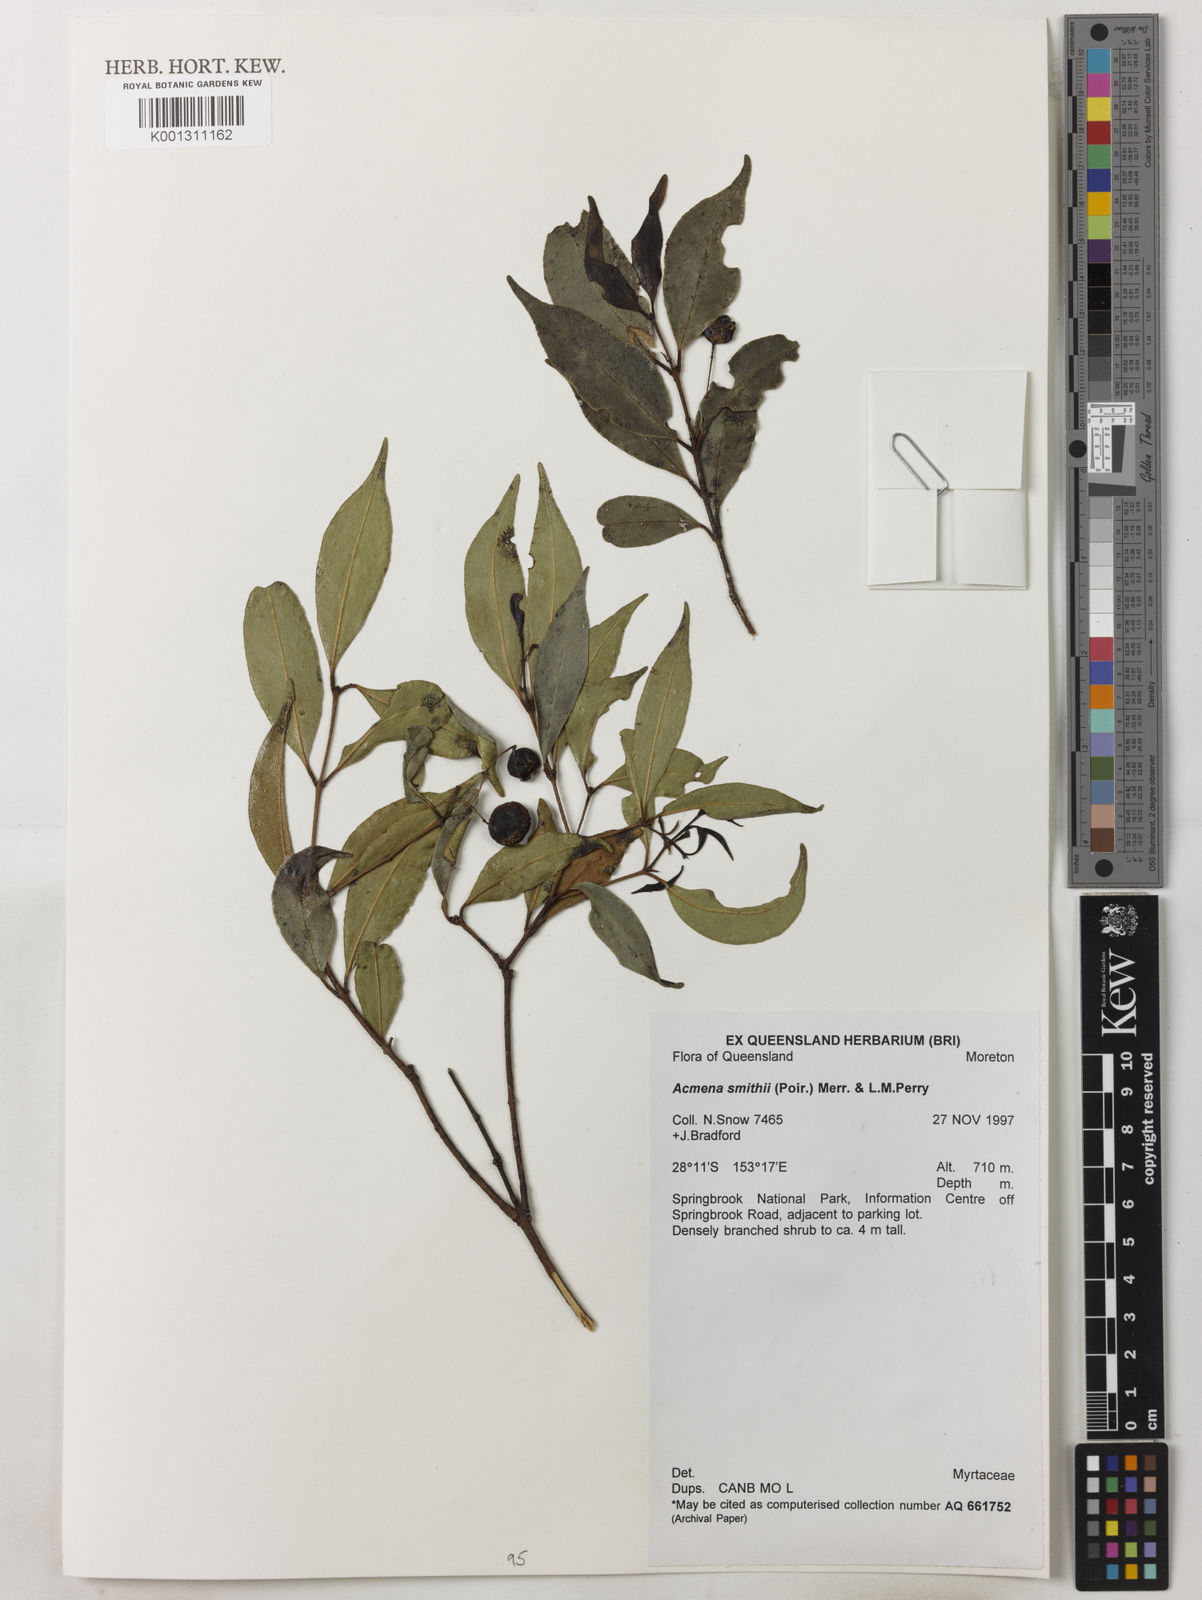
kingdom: Plantae
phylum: Tracheophyta
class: Magnoliopsida
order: Myrtales
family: Myrtaceae
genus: Syzygium
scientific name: Syzygium smithii
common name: Lilly-pilly
